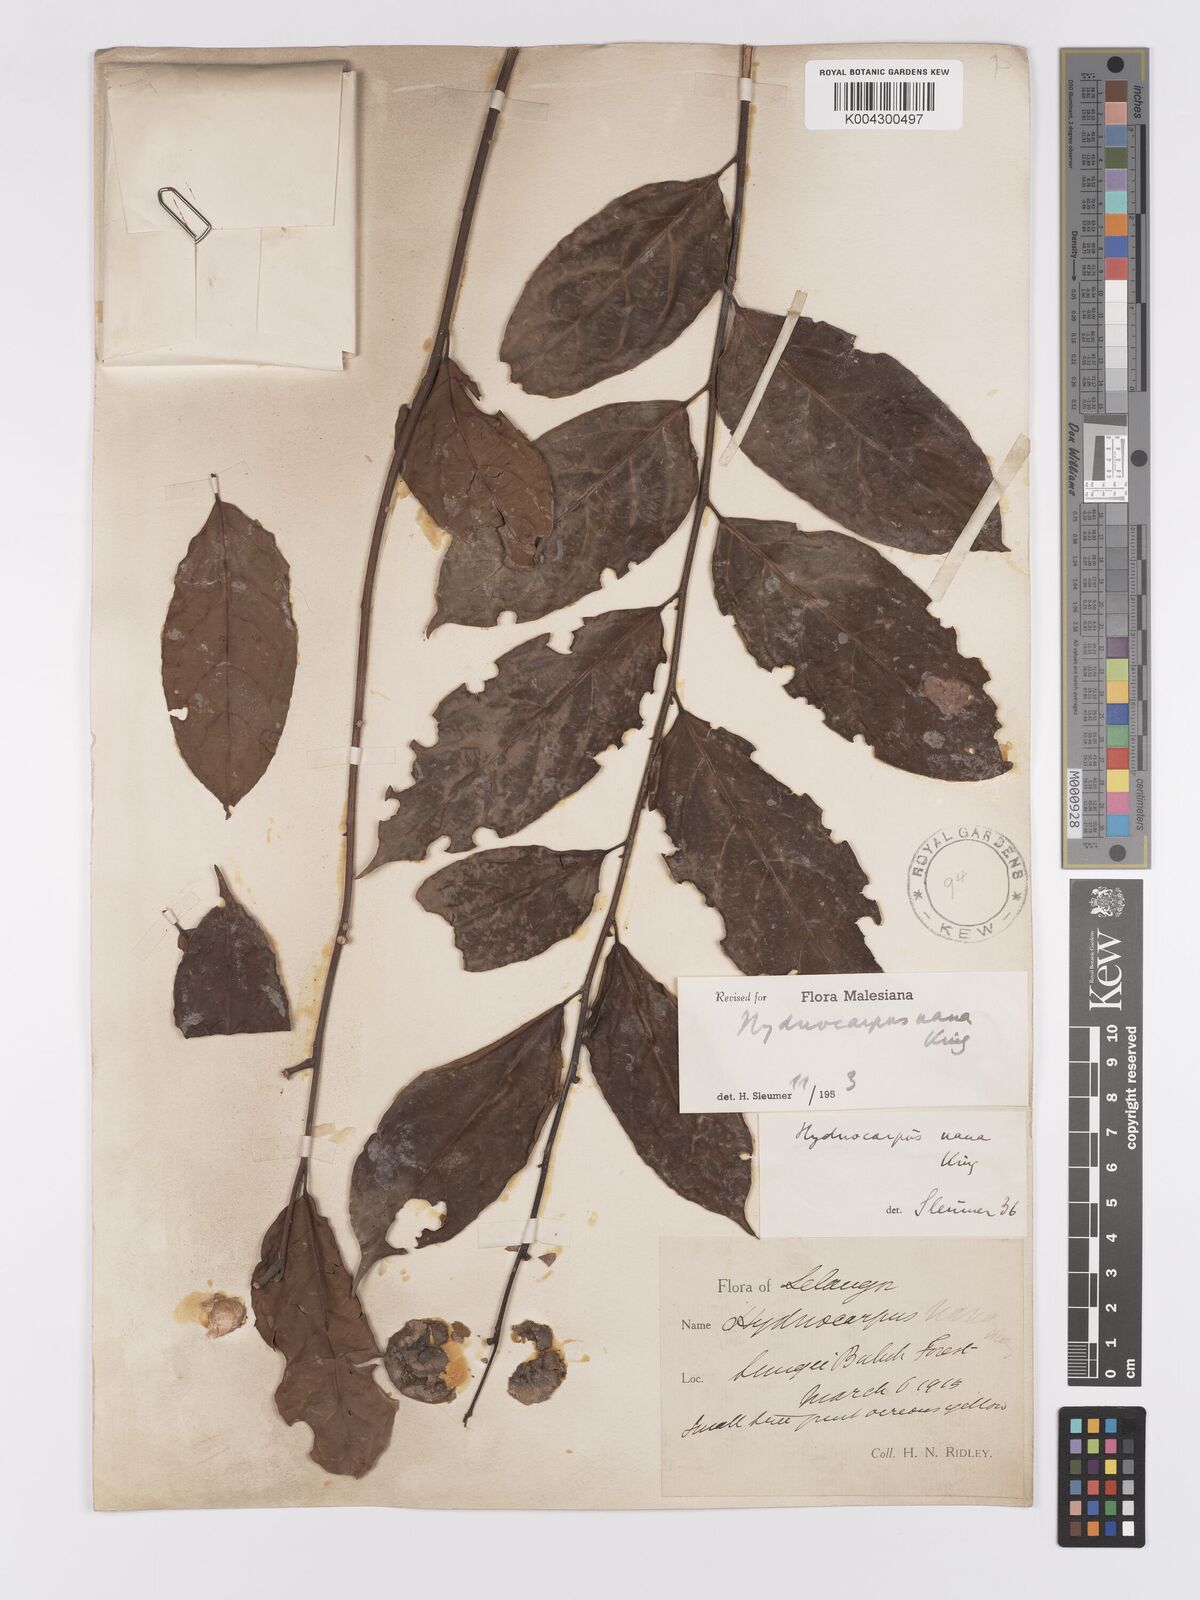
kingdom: Plantae
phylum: Tracheophyta
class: Magnoliopsida
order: Malpighiales
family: Achariaceae
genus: Hydnocarpus
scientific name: Hydnocarpus nanus
